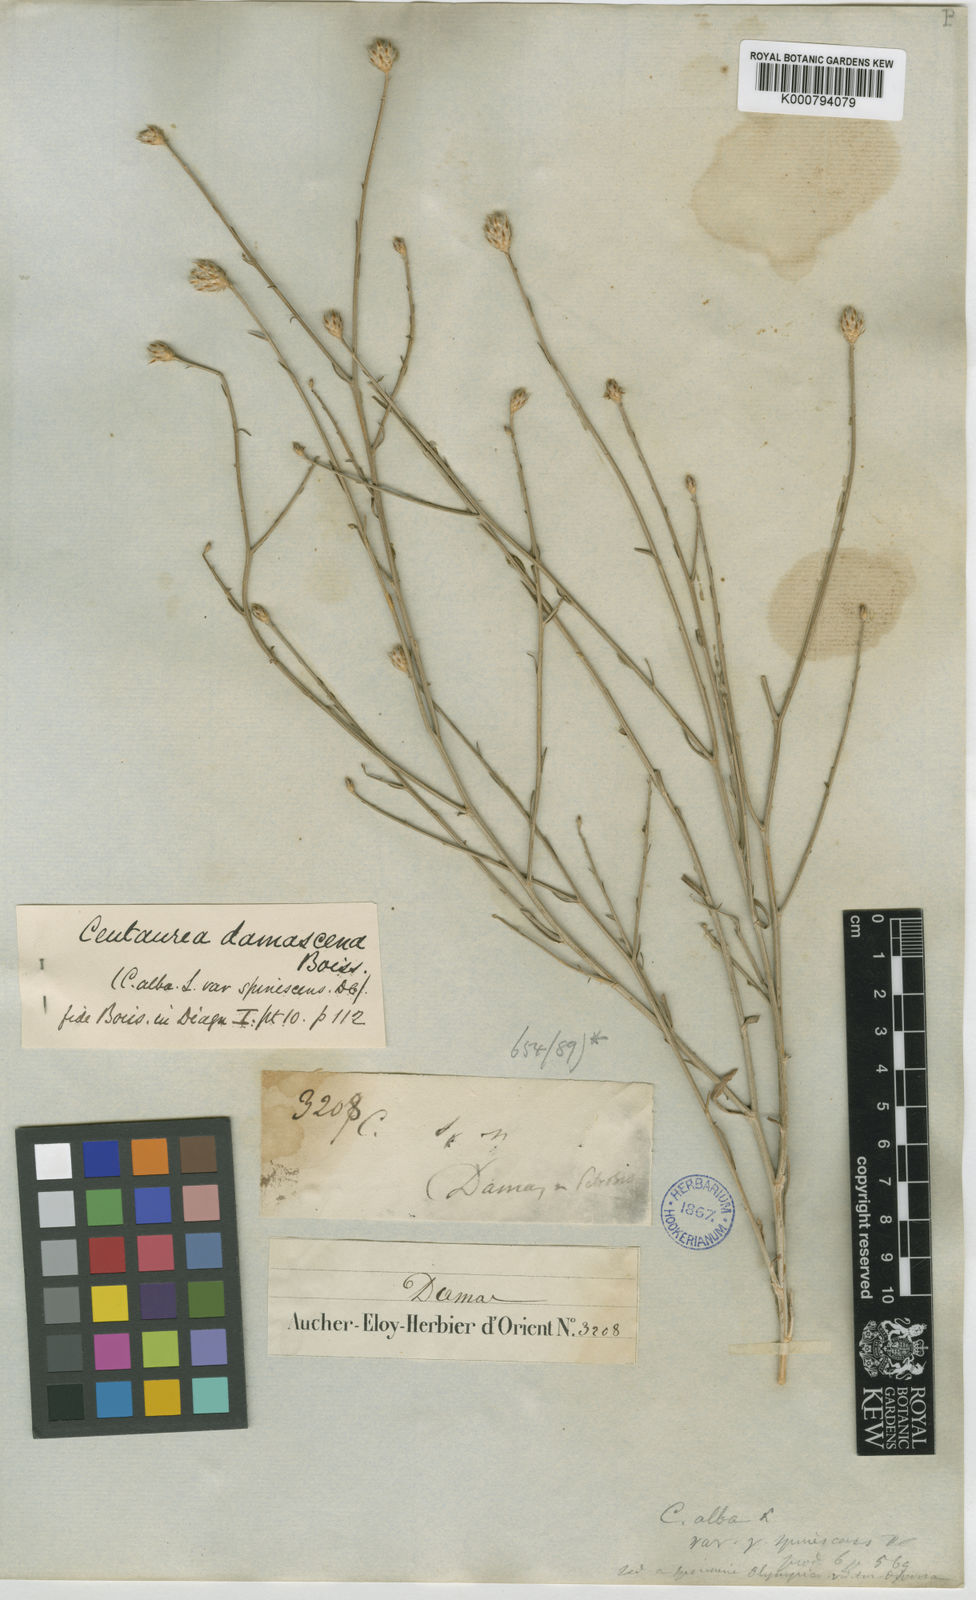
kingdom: Plantae
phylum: Tracheophyta
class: Magnoliopsida
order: Asterales
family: Asteraceae
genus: Centaurea
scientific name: Centaurea damascena
